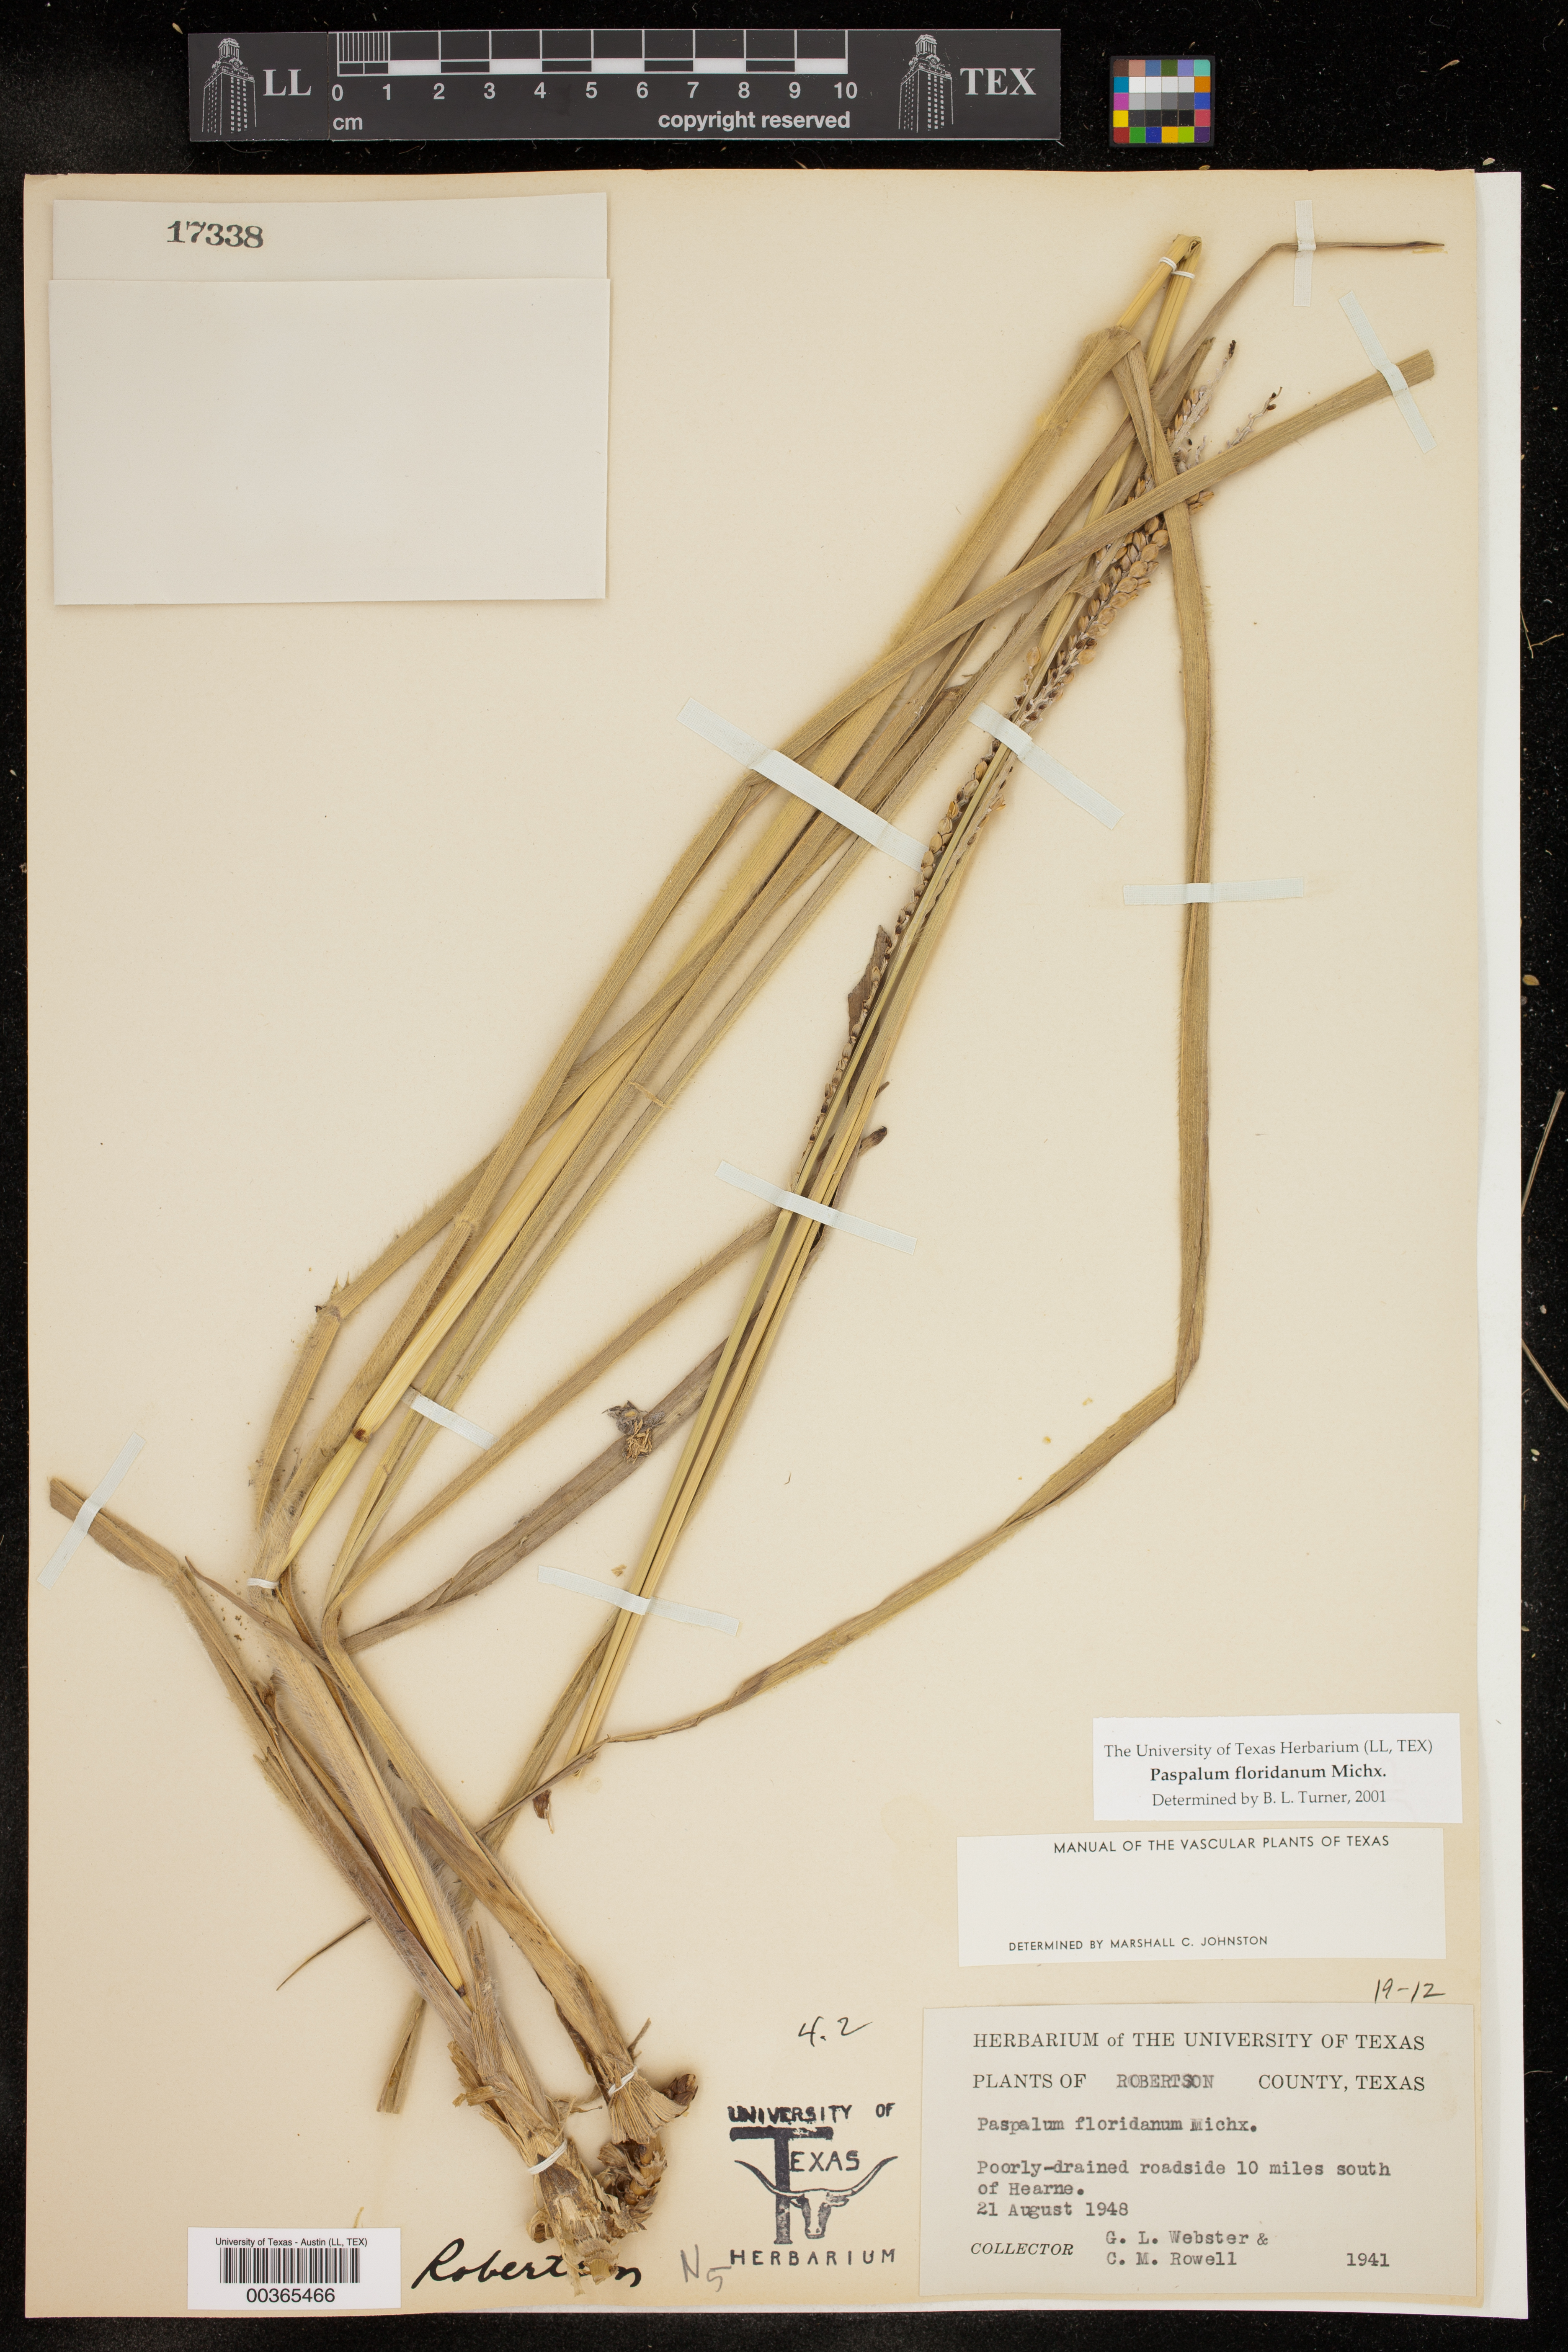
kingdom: Plantae
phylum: Tracheophyta
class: Liliopsida
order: Poales
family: Poaceae
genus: Paspalum
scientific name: Paspalum floridanum
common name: Florida paspalum
